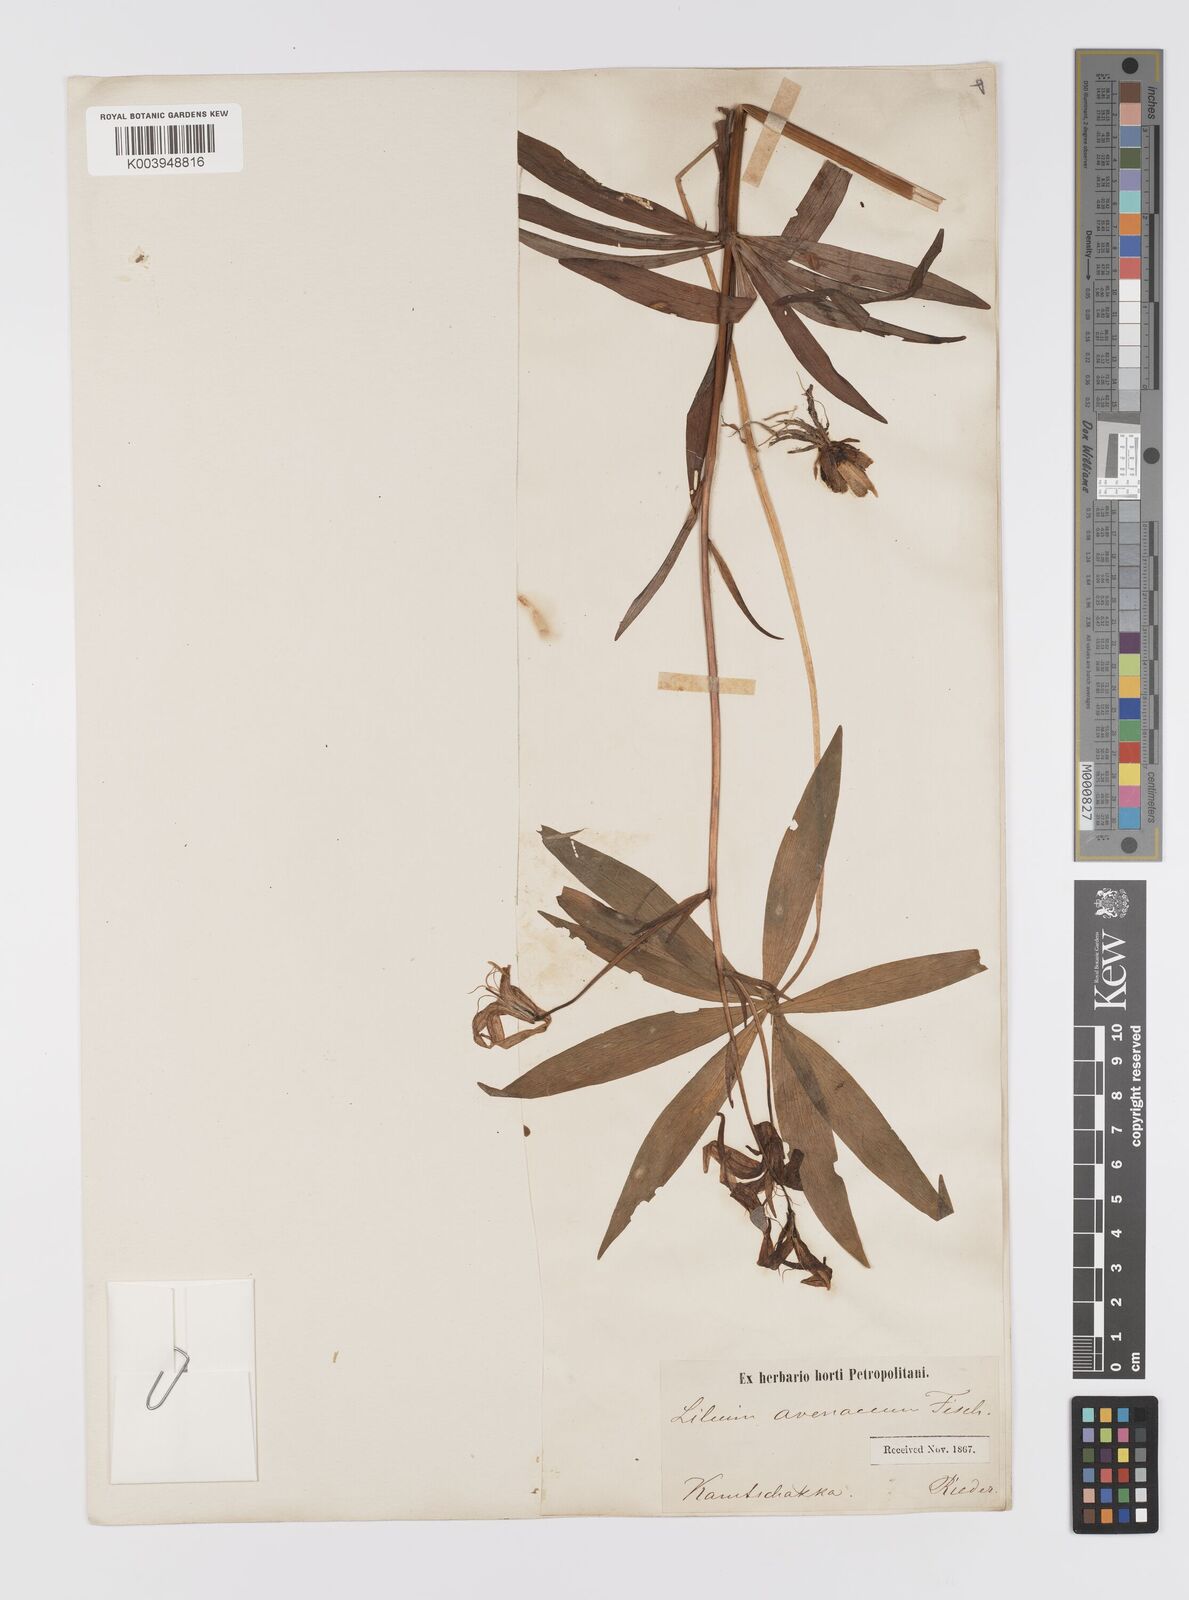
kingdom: Plantae
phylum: Tracheophyta
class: Liliopsida
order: Liliales
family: Liliaceae
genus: Lilium
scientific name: Lilium medeoloides
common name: Wheel lily
